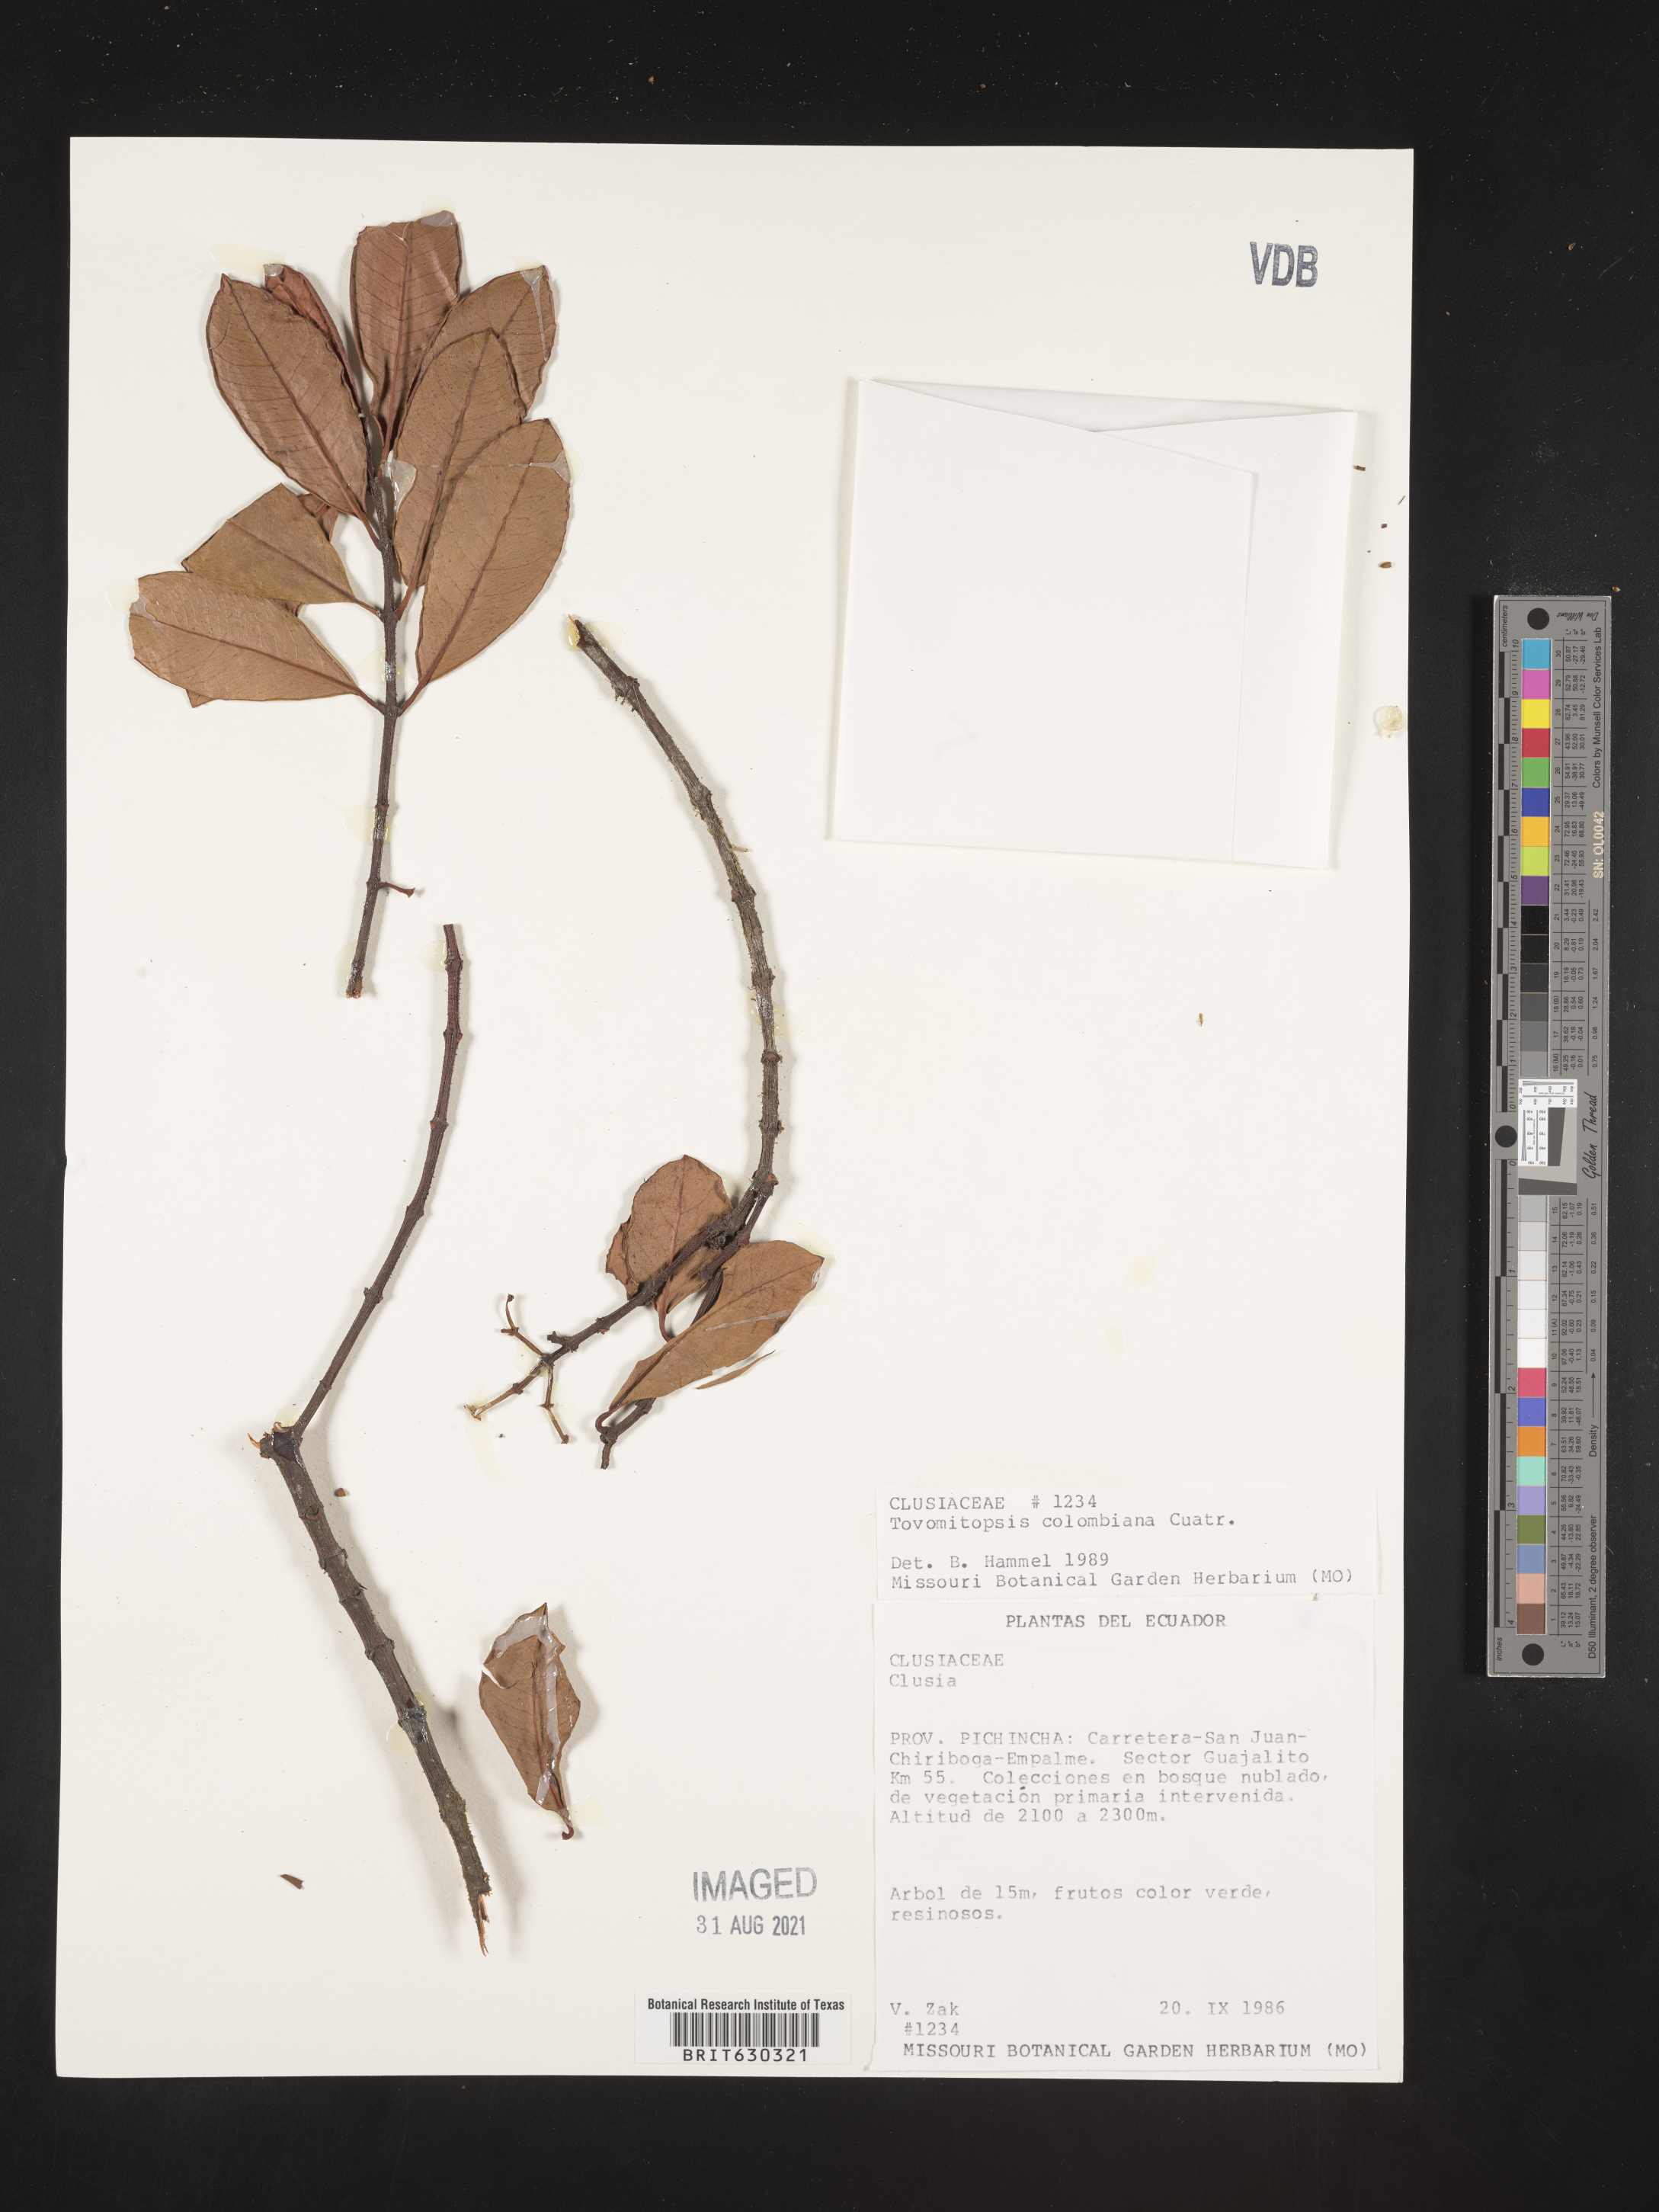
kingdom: Plantae
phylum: Tracheophyta
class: Magnoliopsida
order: Malpighiales
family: Clusiaceae
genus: Chrysochlamys
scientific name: Chrysochlamys colombiana
